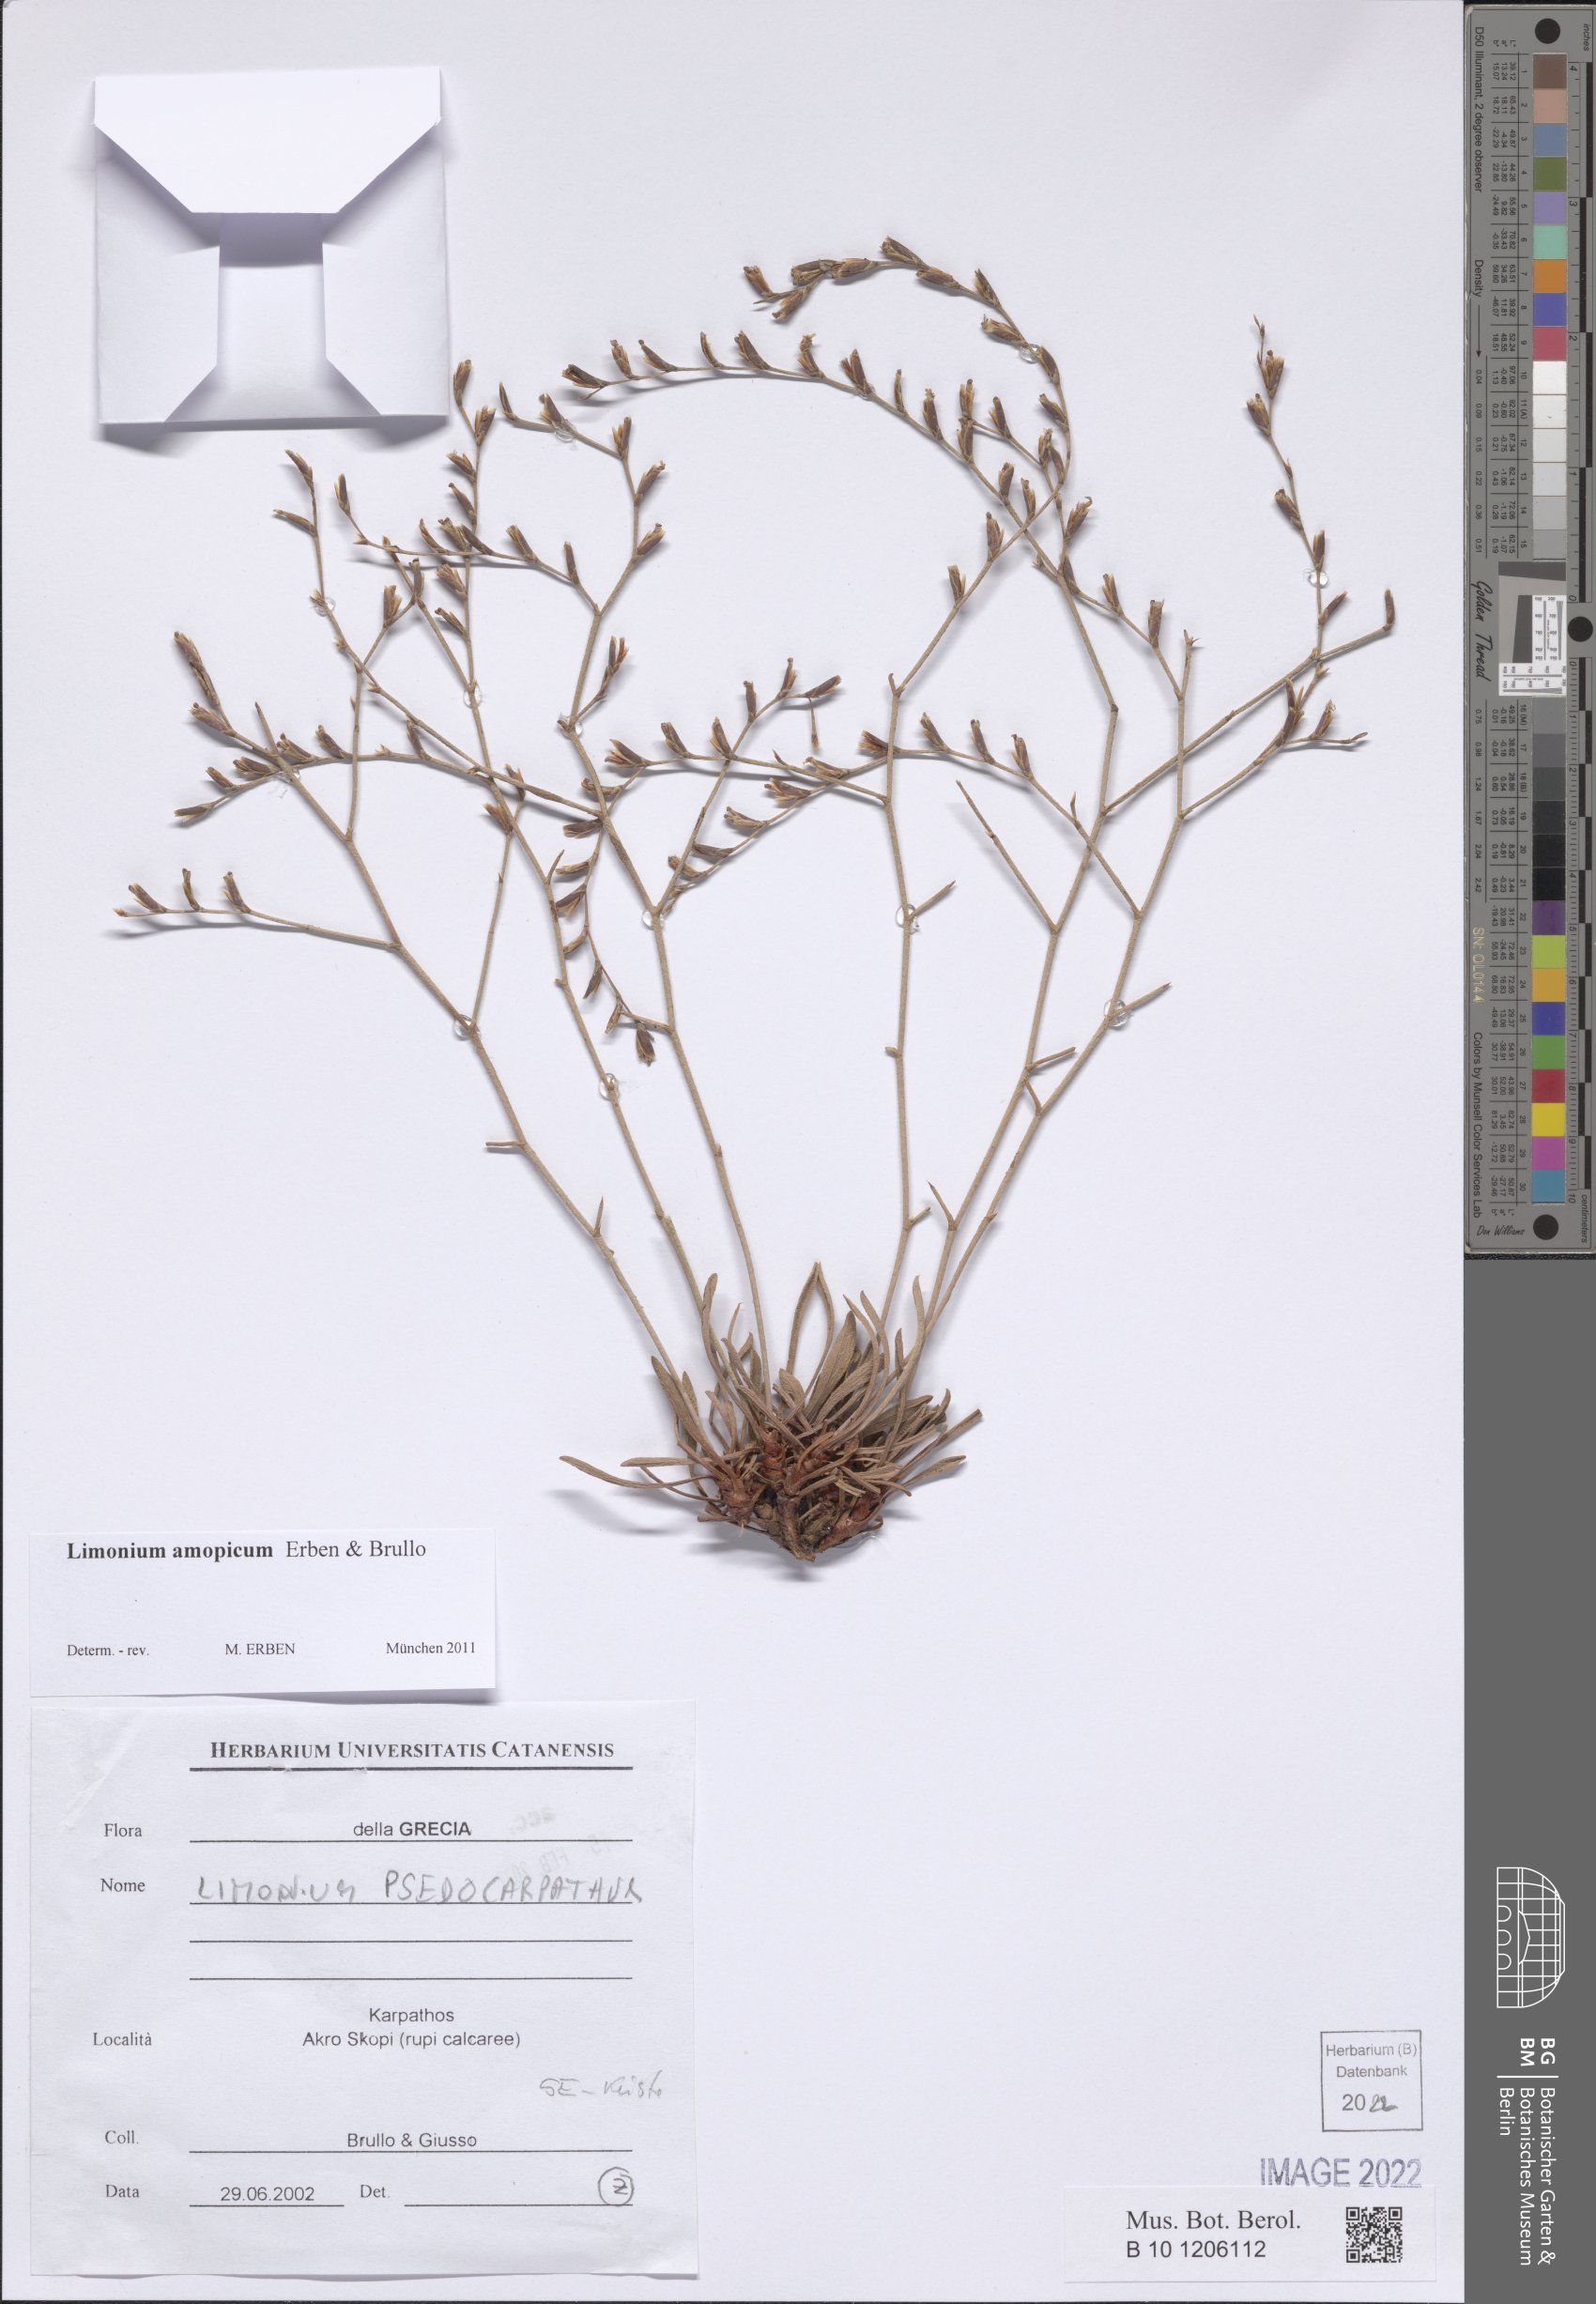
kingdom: Plantae
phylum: Tracheophyta
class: Magnoliopsida
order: Caryophyllales
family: Plumbaginaceae
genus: Limonium
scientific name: Limonium amopicum
